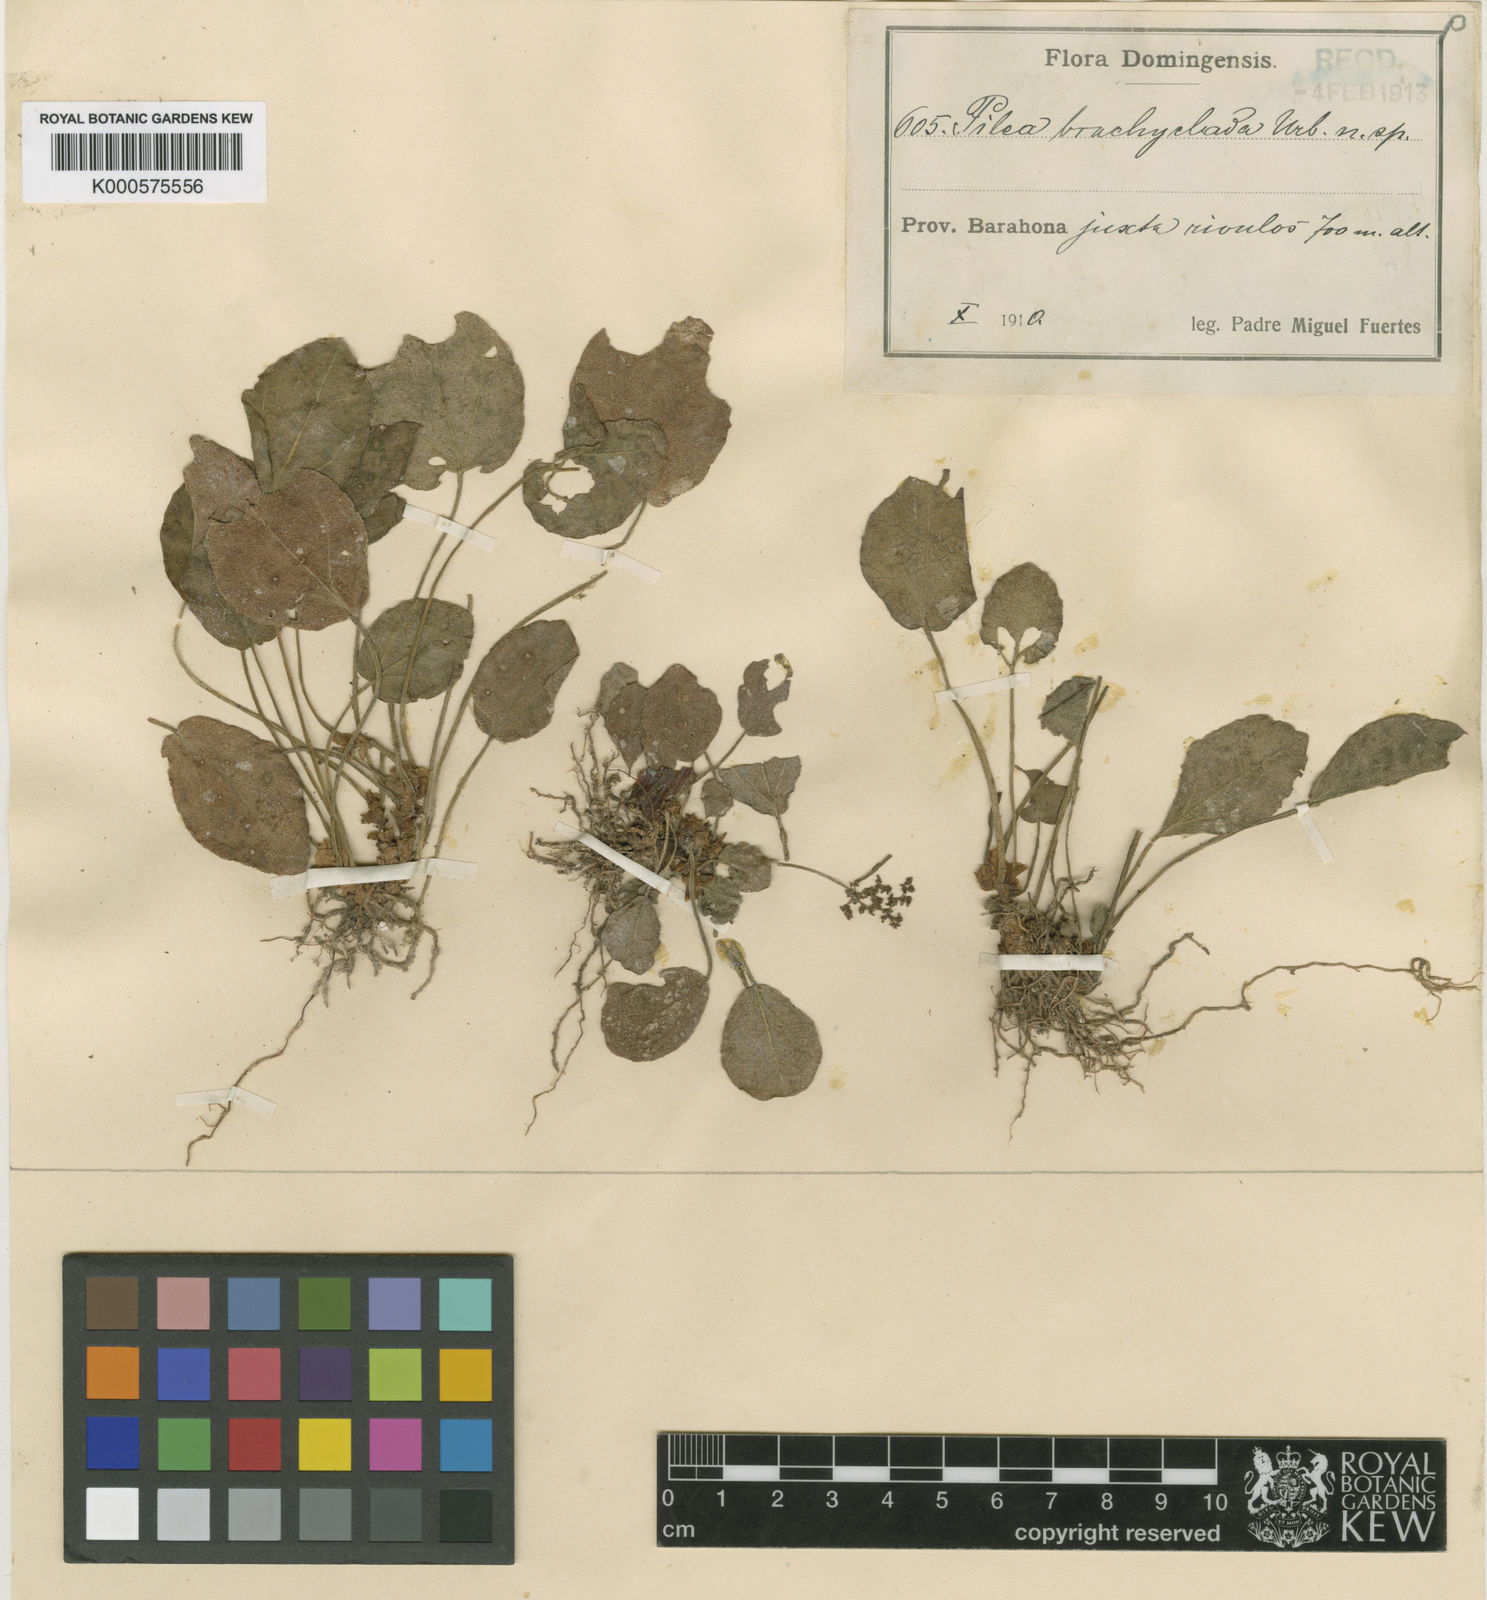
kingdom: Plantae
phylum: Tracheophyta
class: Magnoliopsida
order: Rosales
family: Urticaceae
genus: Pilea
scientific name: Pilea stolonifera
